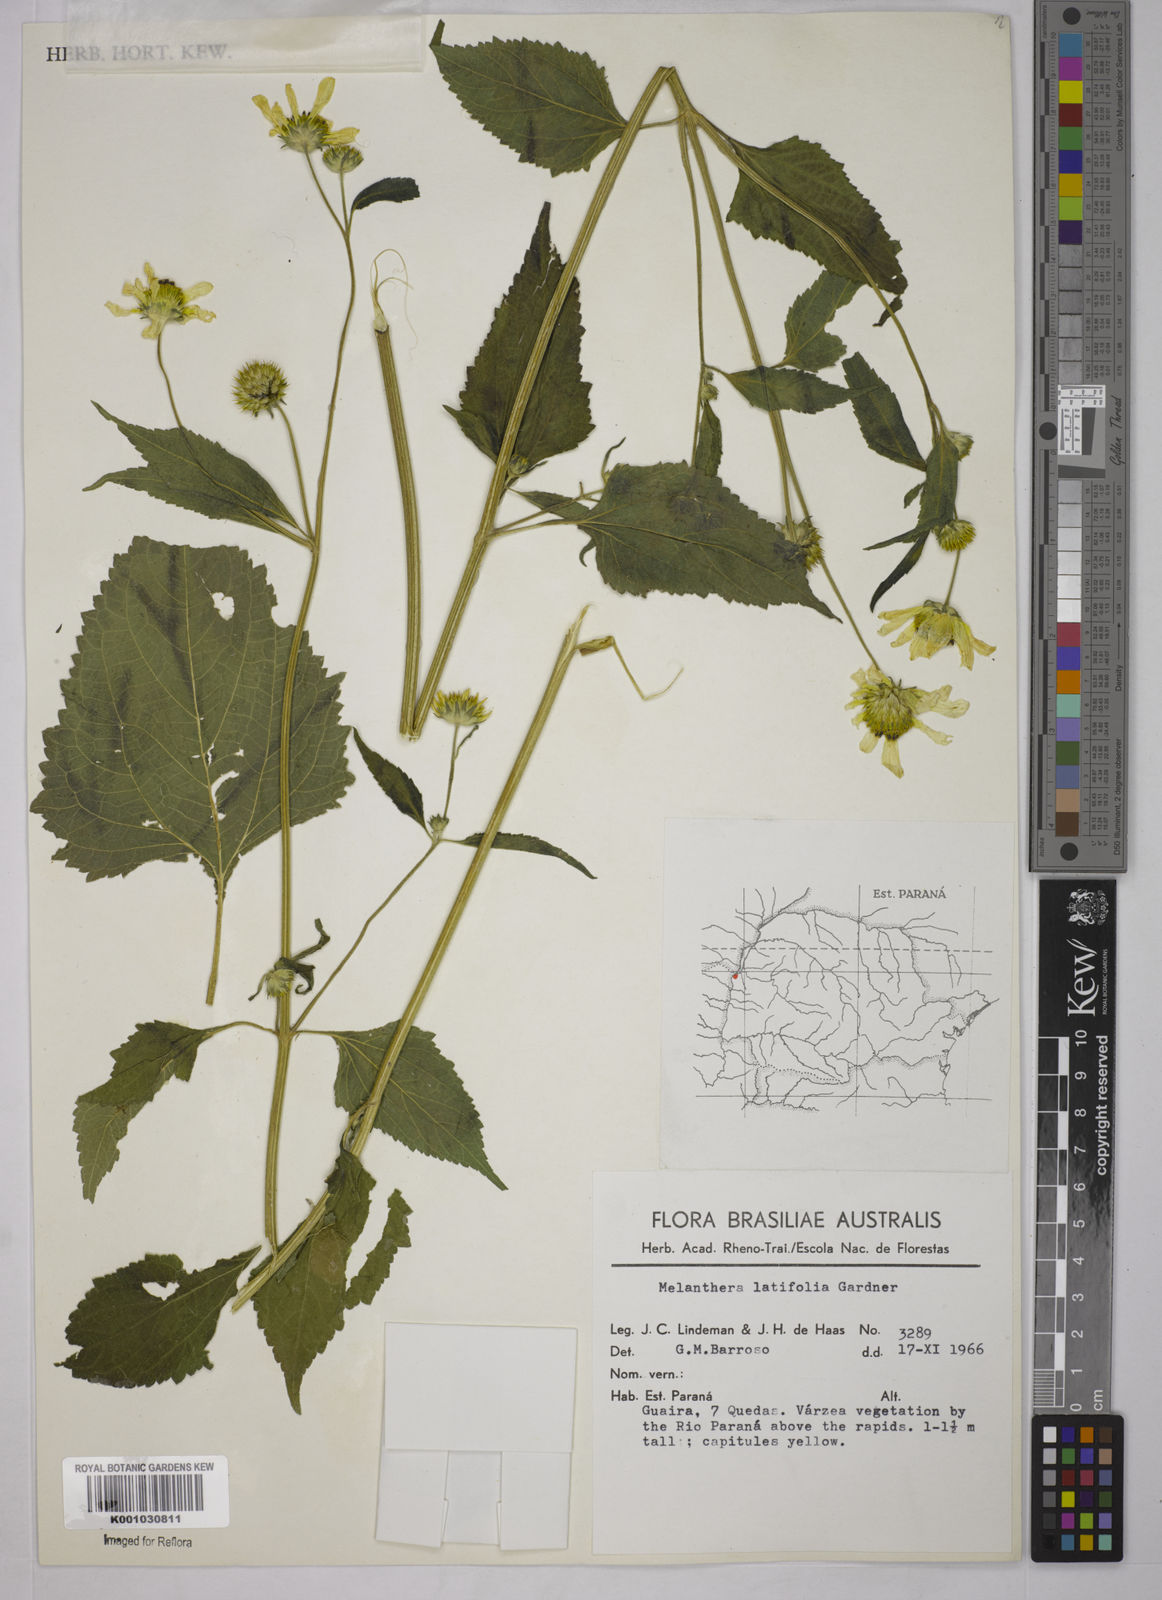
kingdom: Plantae
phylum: Tracheophyta
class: Magnoliopsida
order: Asterales
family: Asteraceae
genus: Echinocephalum
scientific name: Echinocephalum latifolium
